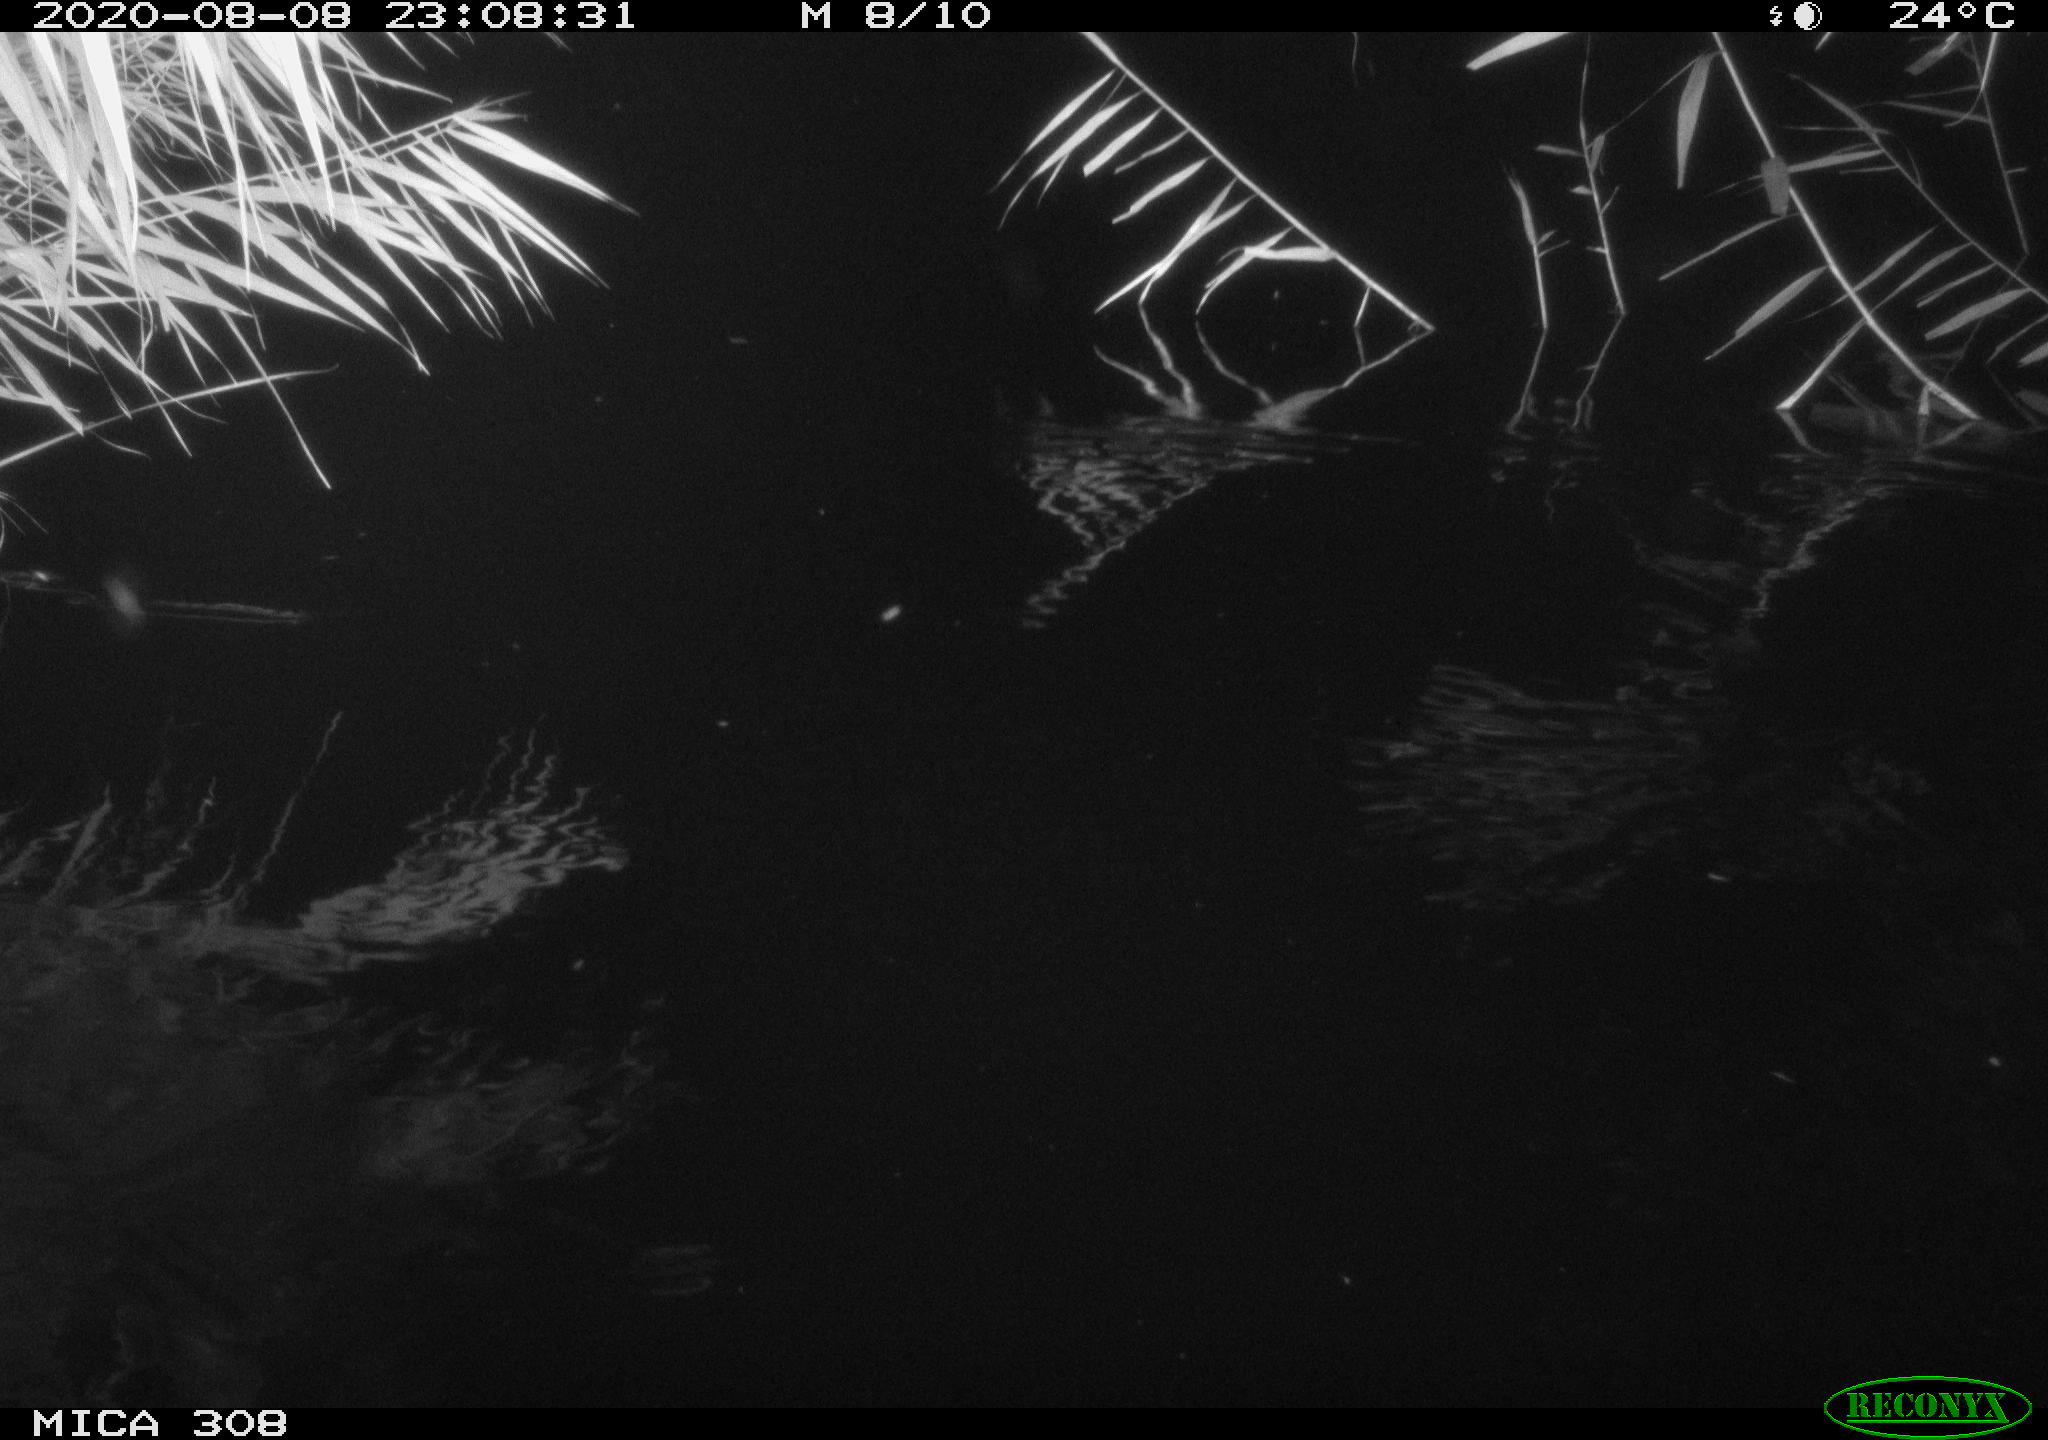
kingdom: Animalia
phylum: Chordata
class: Mammalia
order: Rodentia
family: Muridae
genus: Rattus
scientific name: Rattus norvegicus
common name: Brown rat
